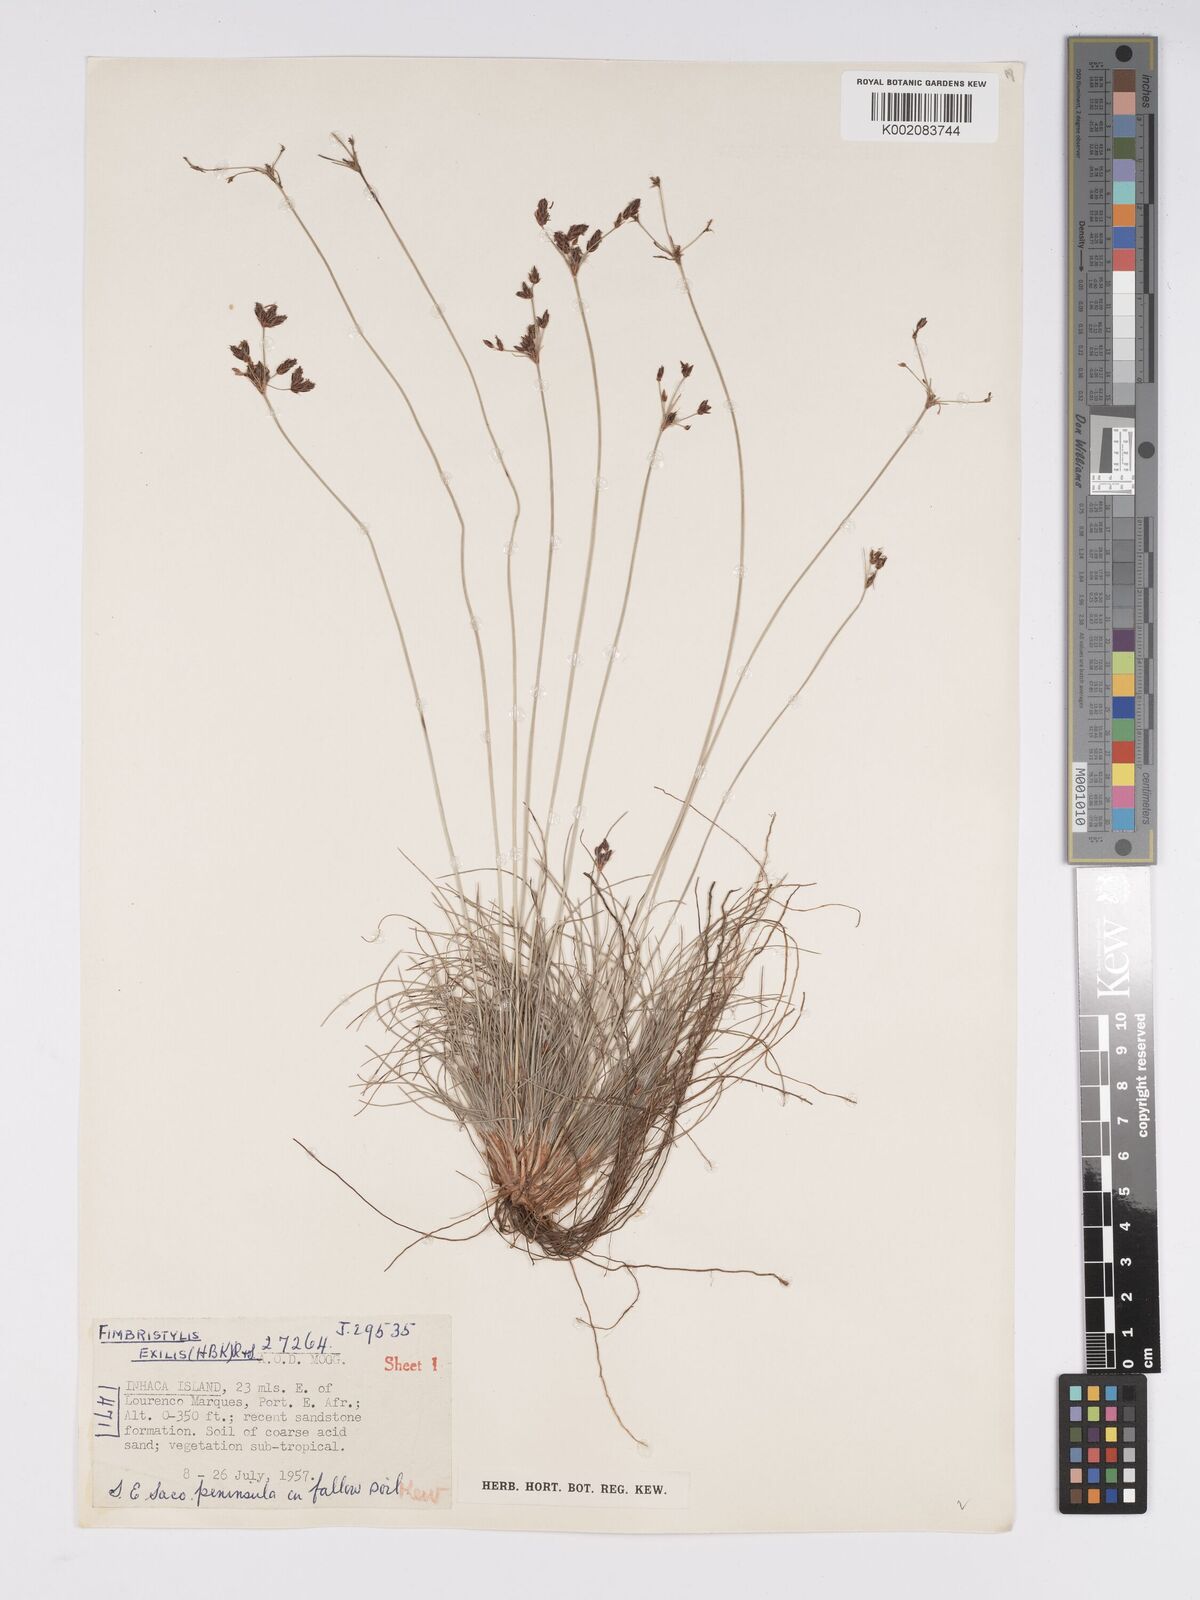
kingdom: Plantae
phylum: Tracheophyta
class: Liliopsida
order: Poales
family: Cyperaceae
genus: Bulbostylis
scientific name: Bulbostylis hispidula
